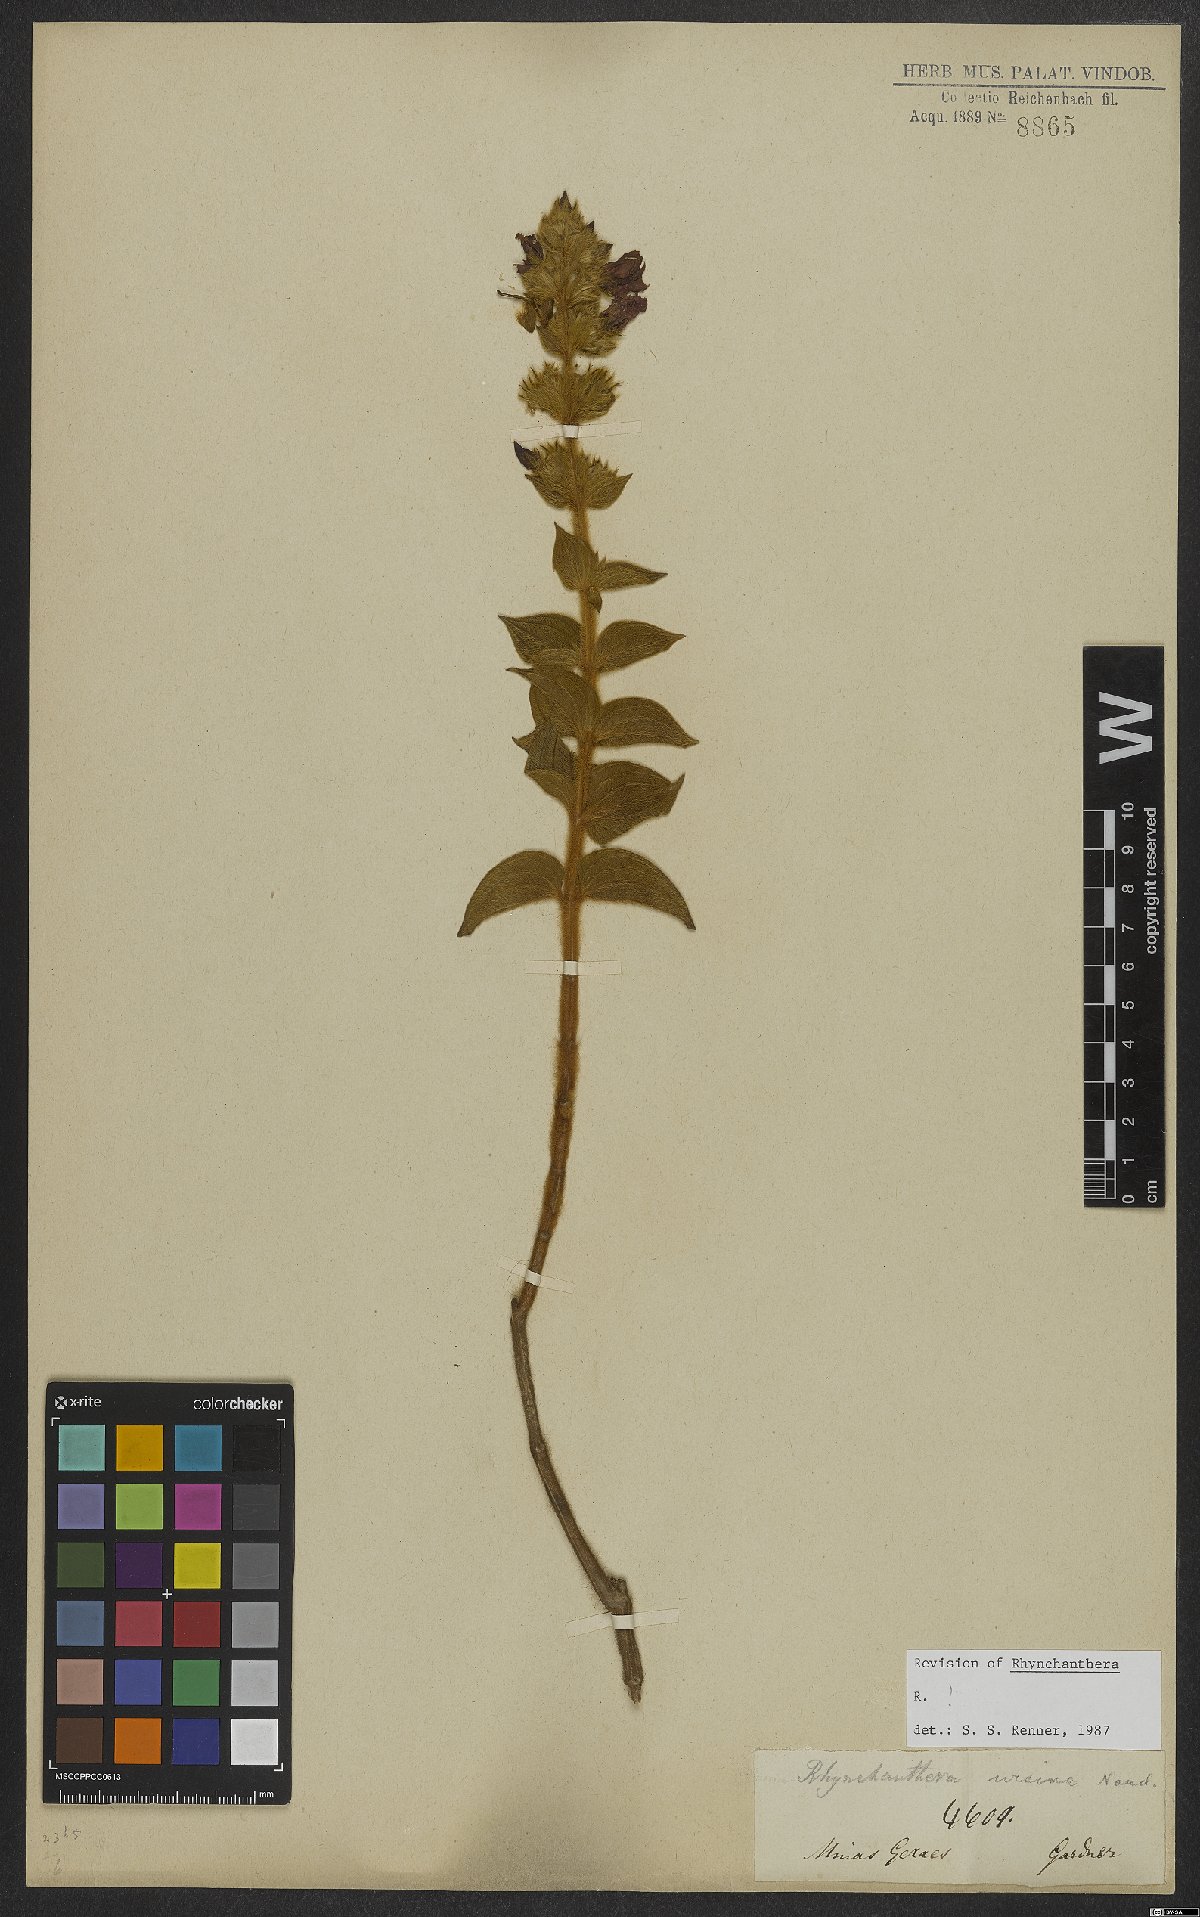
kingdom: Plantae
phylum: Tracheophyta
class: Magnoliopsida
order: Myrtales
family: Melastomataceae
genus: Rhynchanthera
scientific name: Rhynchanthera ursina
